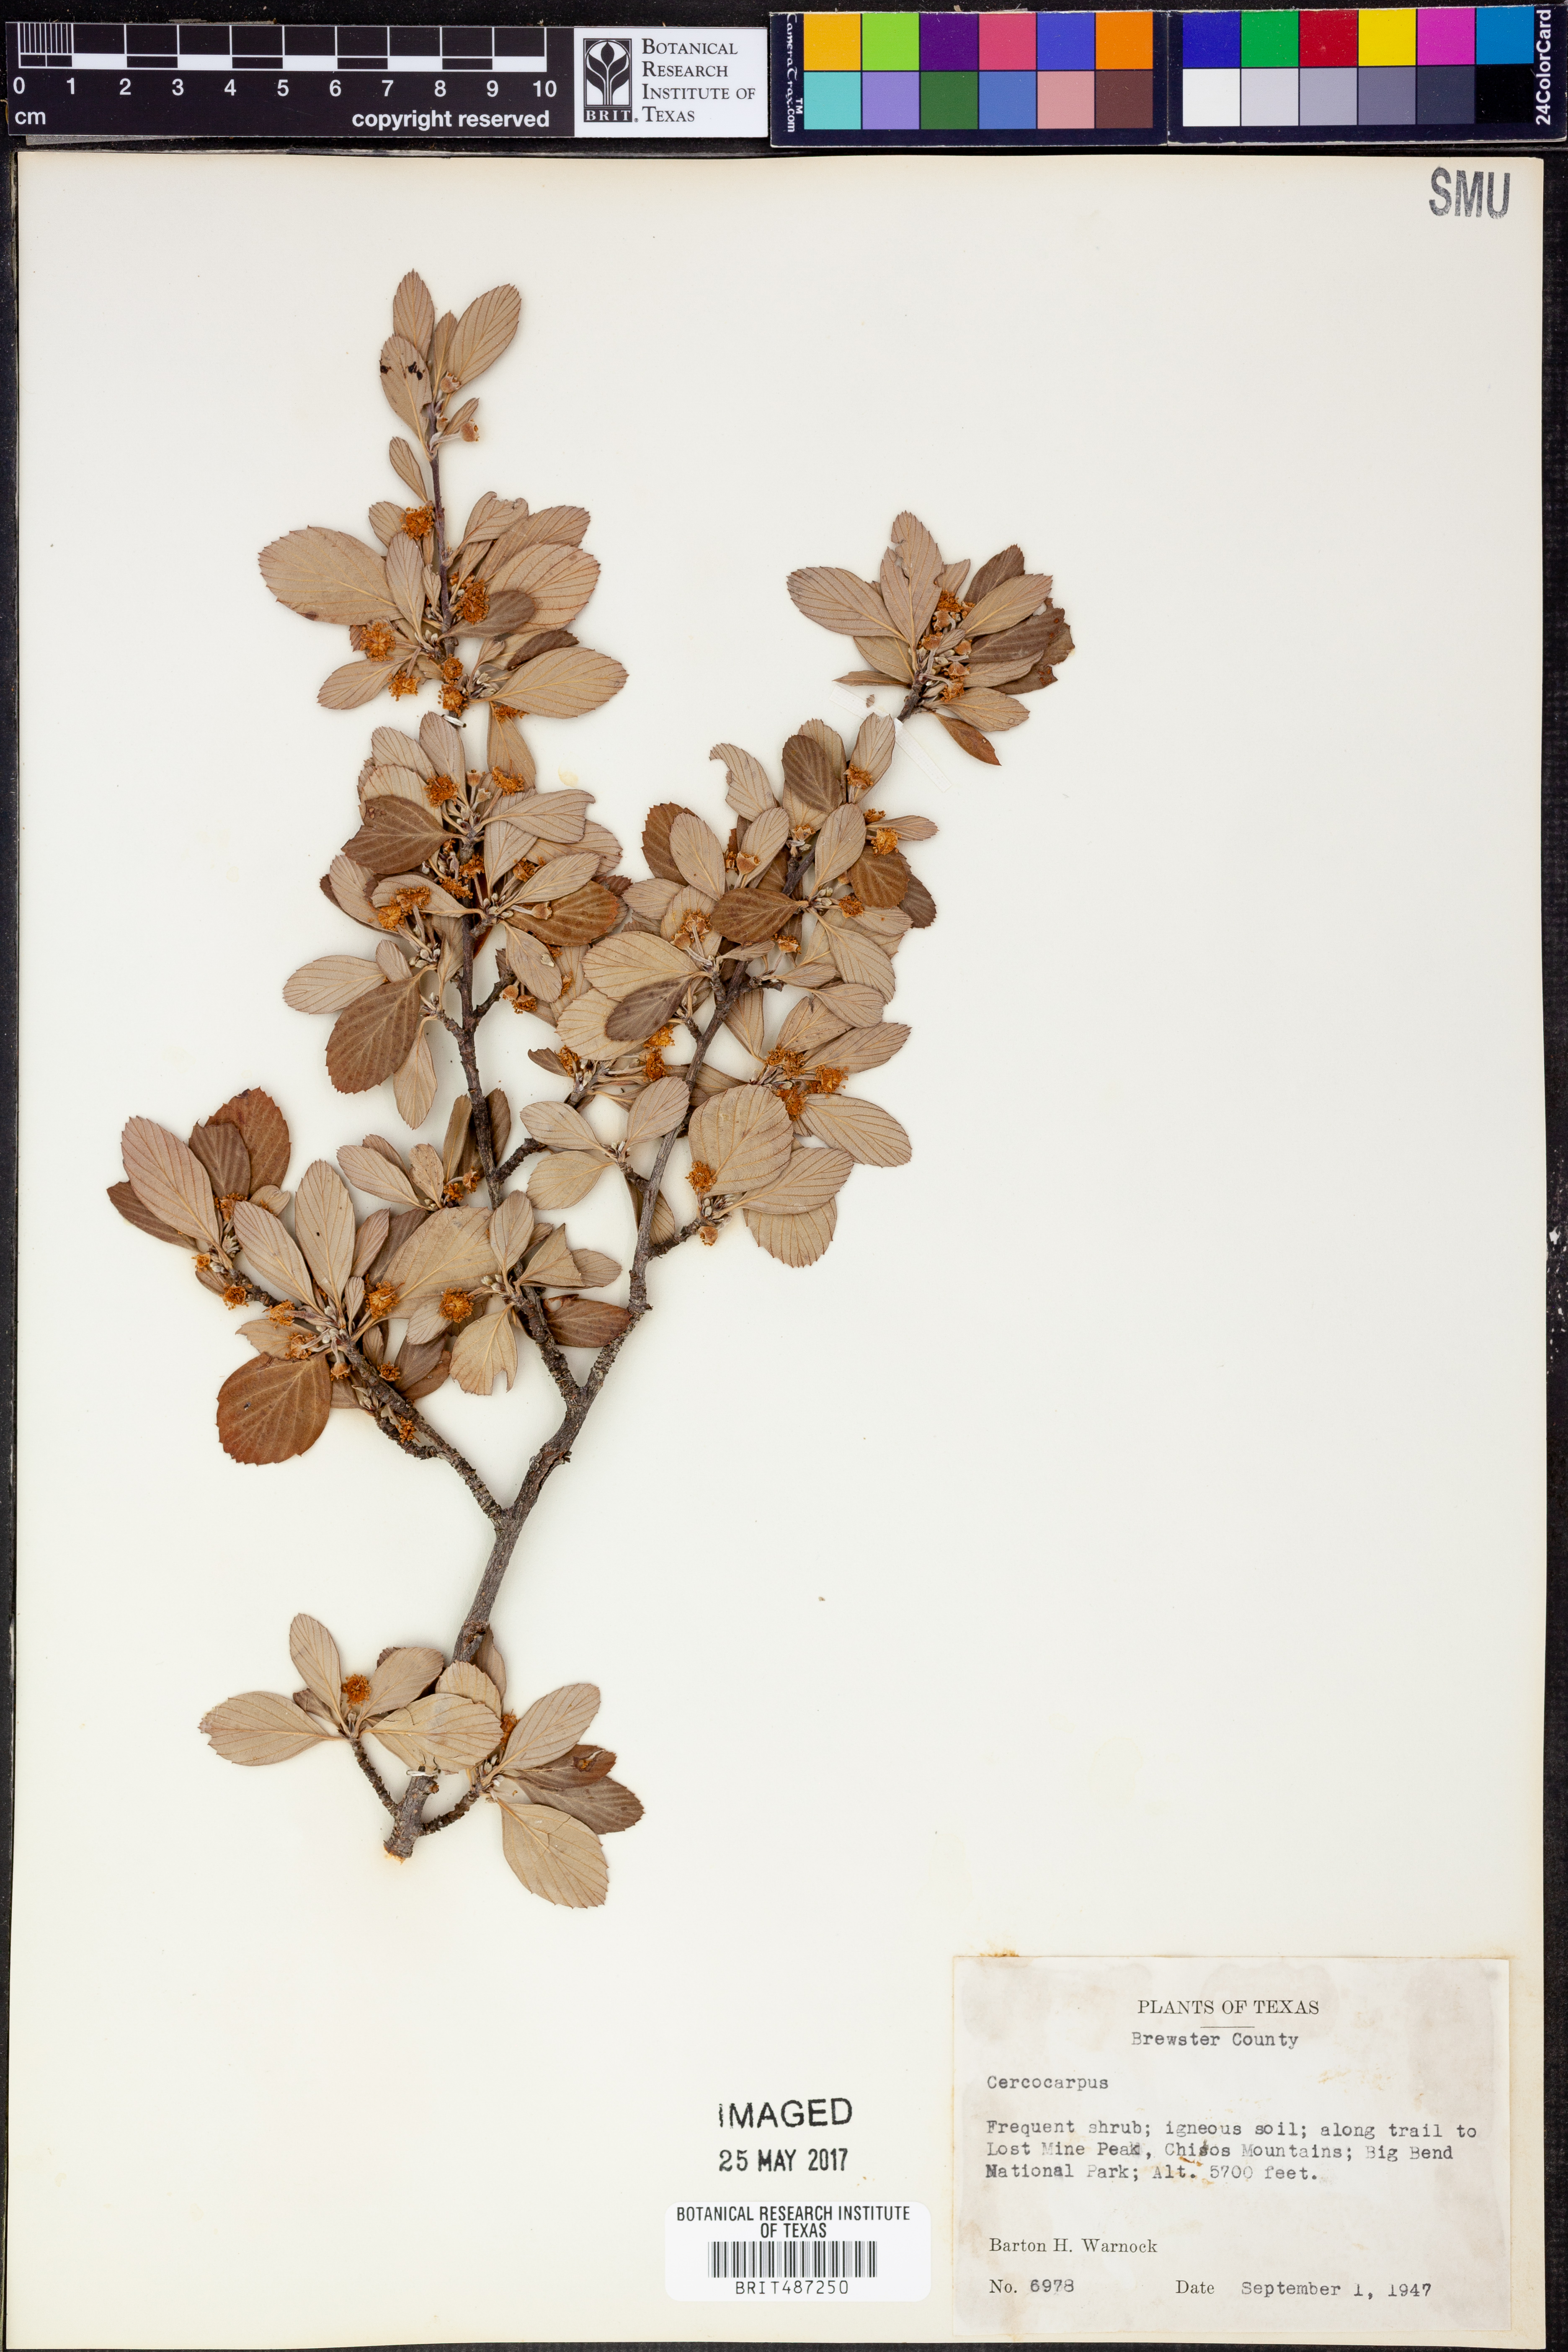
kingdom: Plantae
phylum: Tracheophyta
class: Magnoliopsida
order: Rosales
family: Rosaceae
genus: Cercocarpus
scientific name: Cercocarpus
